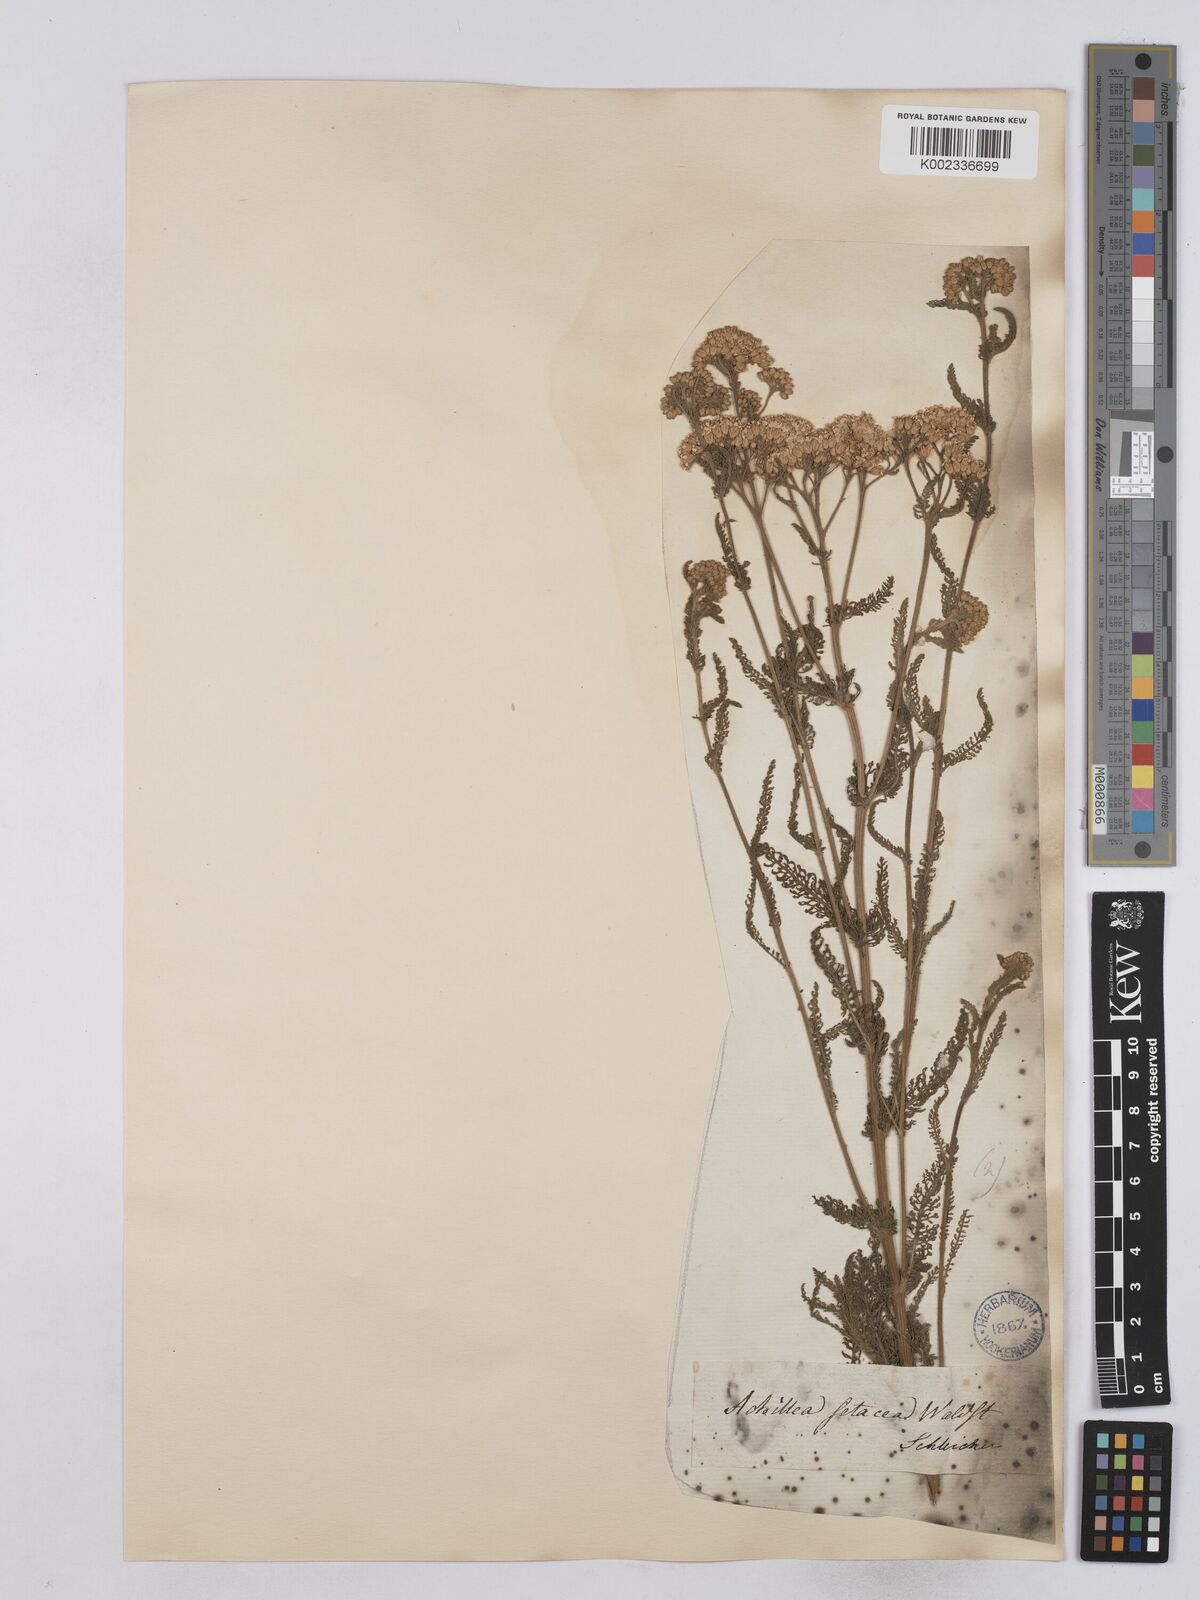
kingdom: Plantae
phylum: Tracheophyta
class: Magnoliopsida
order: Asterales
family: Asteraceae
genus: Achillea
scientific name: Achillea setacea
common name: Bristly yarrow
